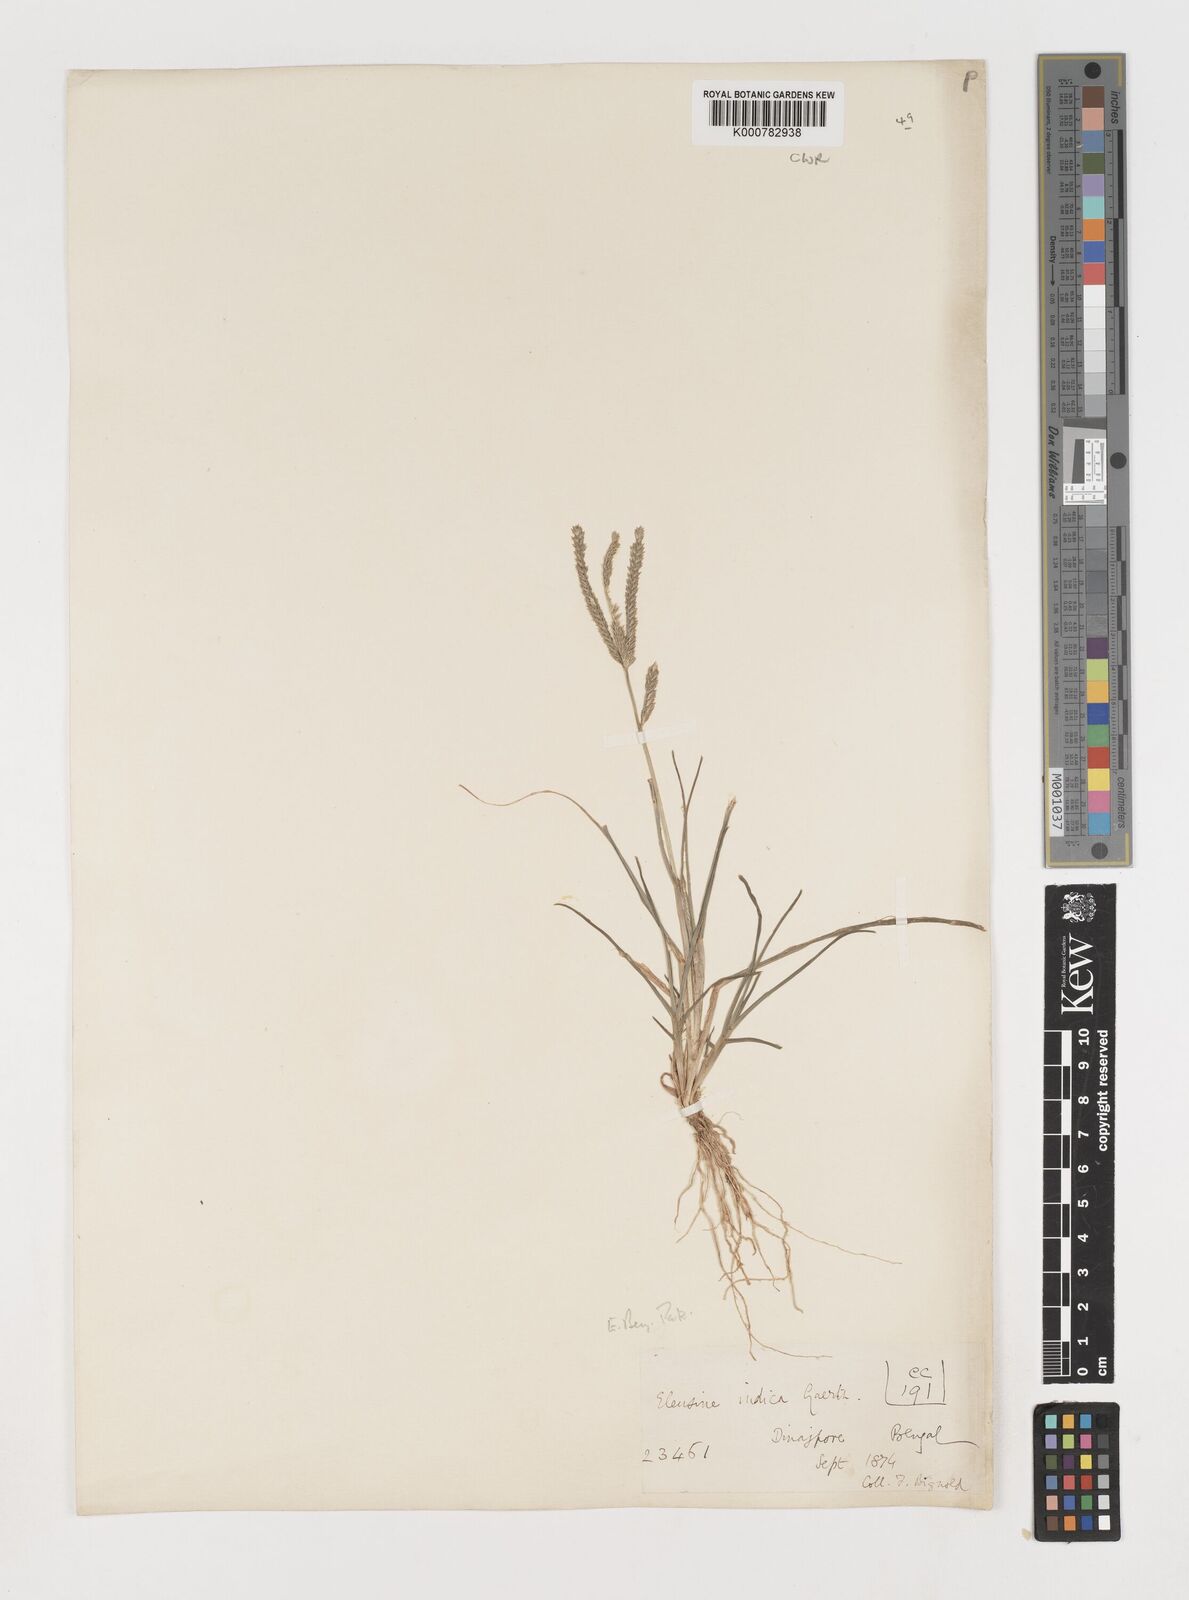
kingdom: Plantae
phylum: Tracheophyta
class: Liliopsida
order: Poales
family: Poaceae
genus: Eleusine
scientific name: Eleusine indica
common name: Yard-grass
